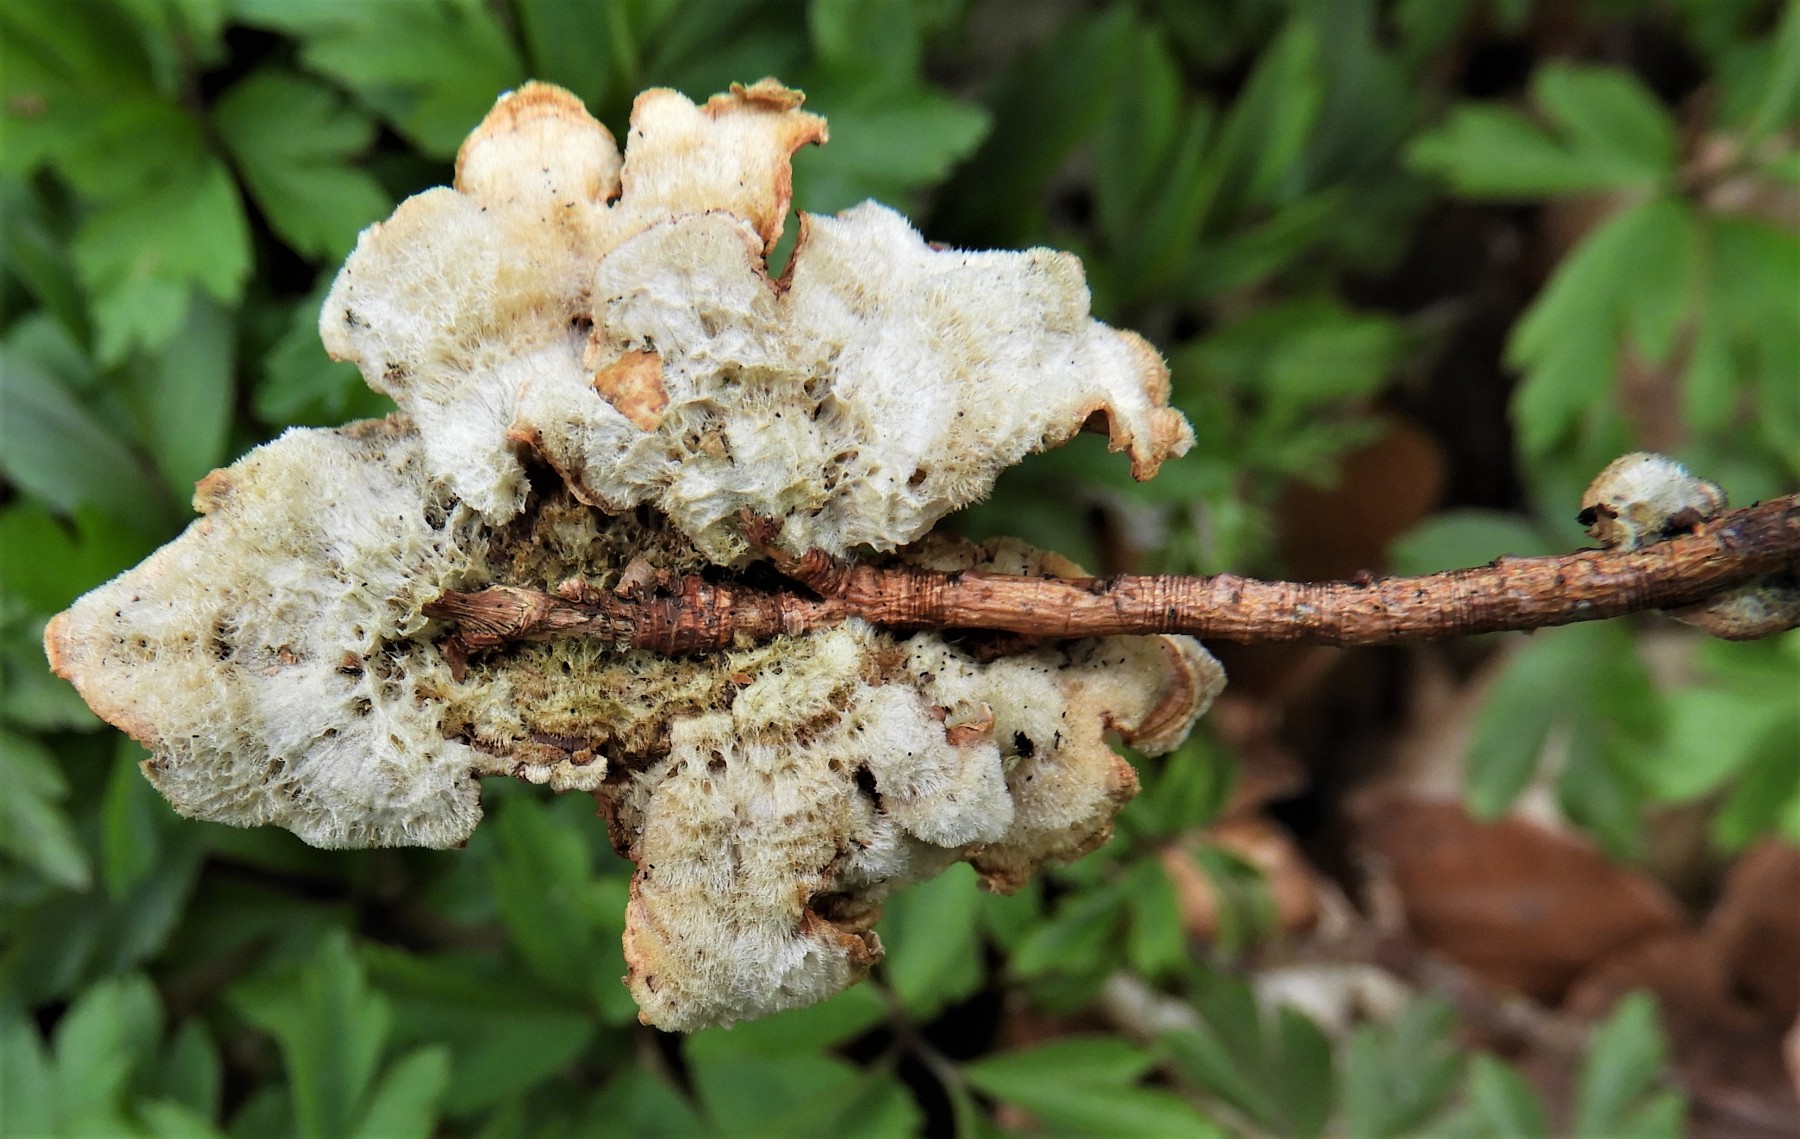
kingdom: Fungi
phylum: Basidiomycota
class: Agaricomycetes
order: Russulales
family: Stereaceae
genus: Stereum
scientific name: Stereum hirsutum
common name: håret lædersvamp
